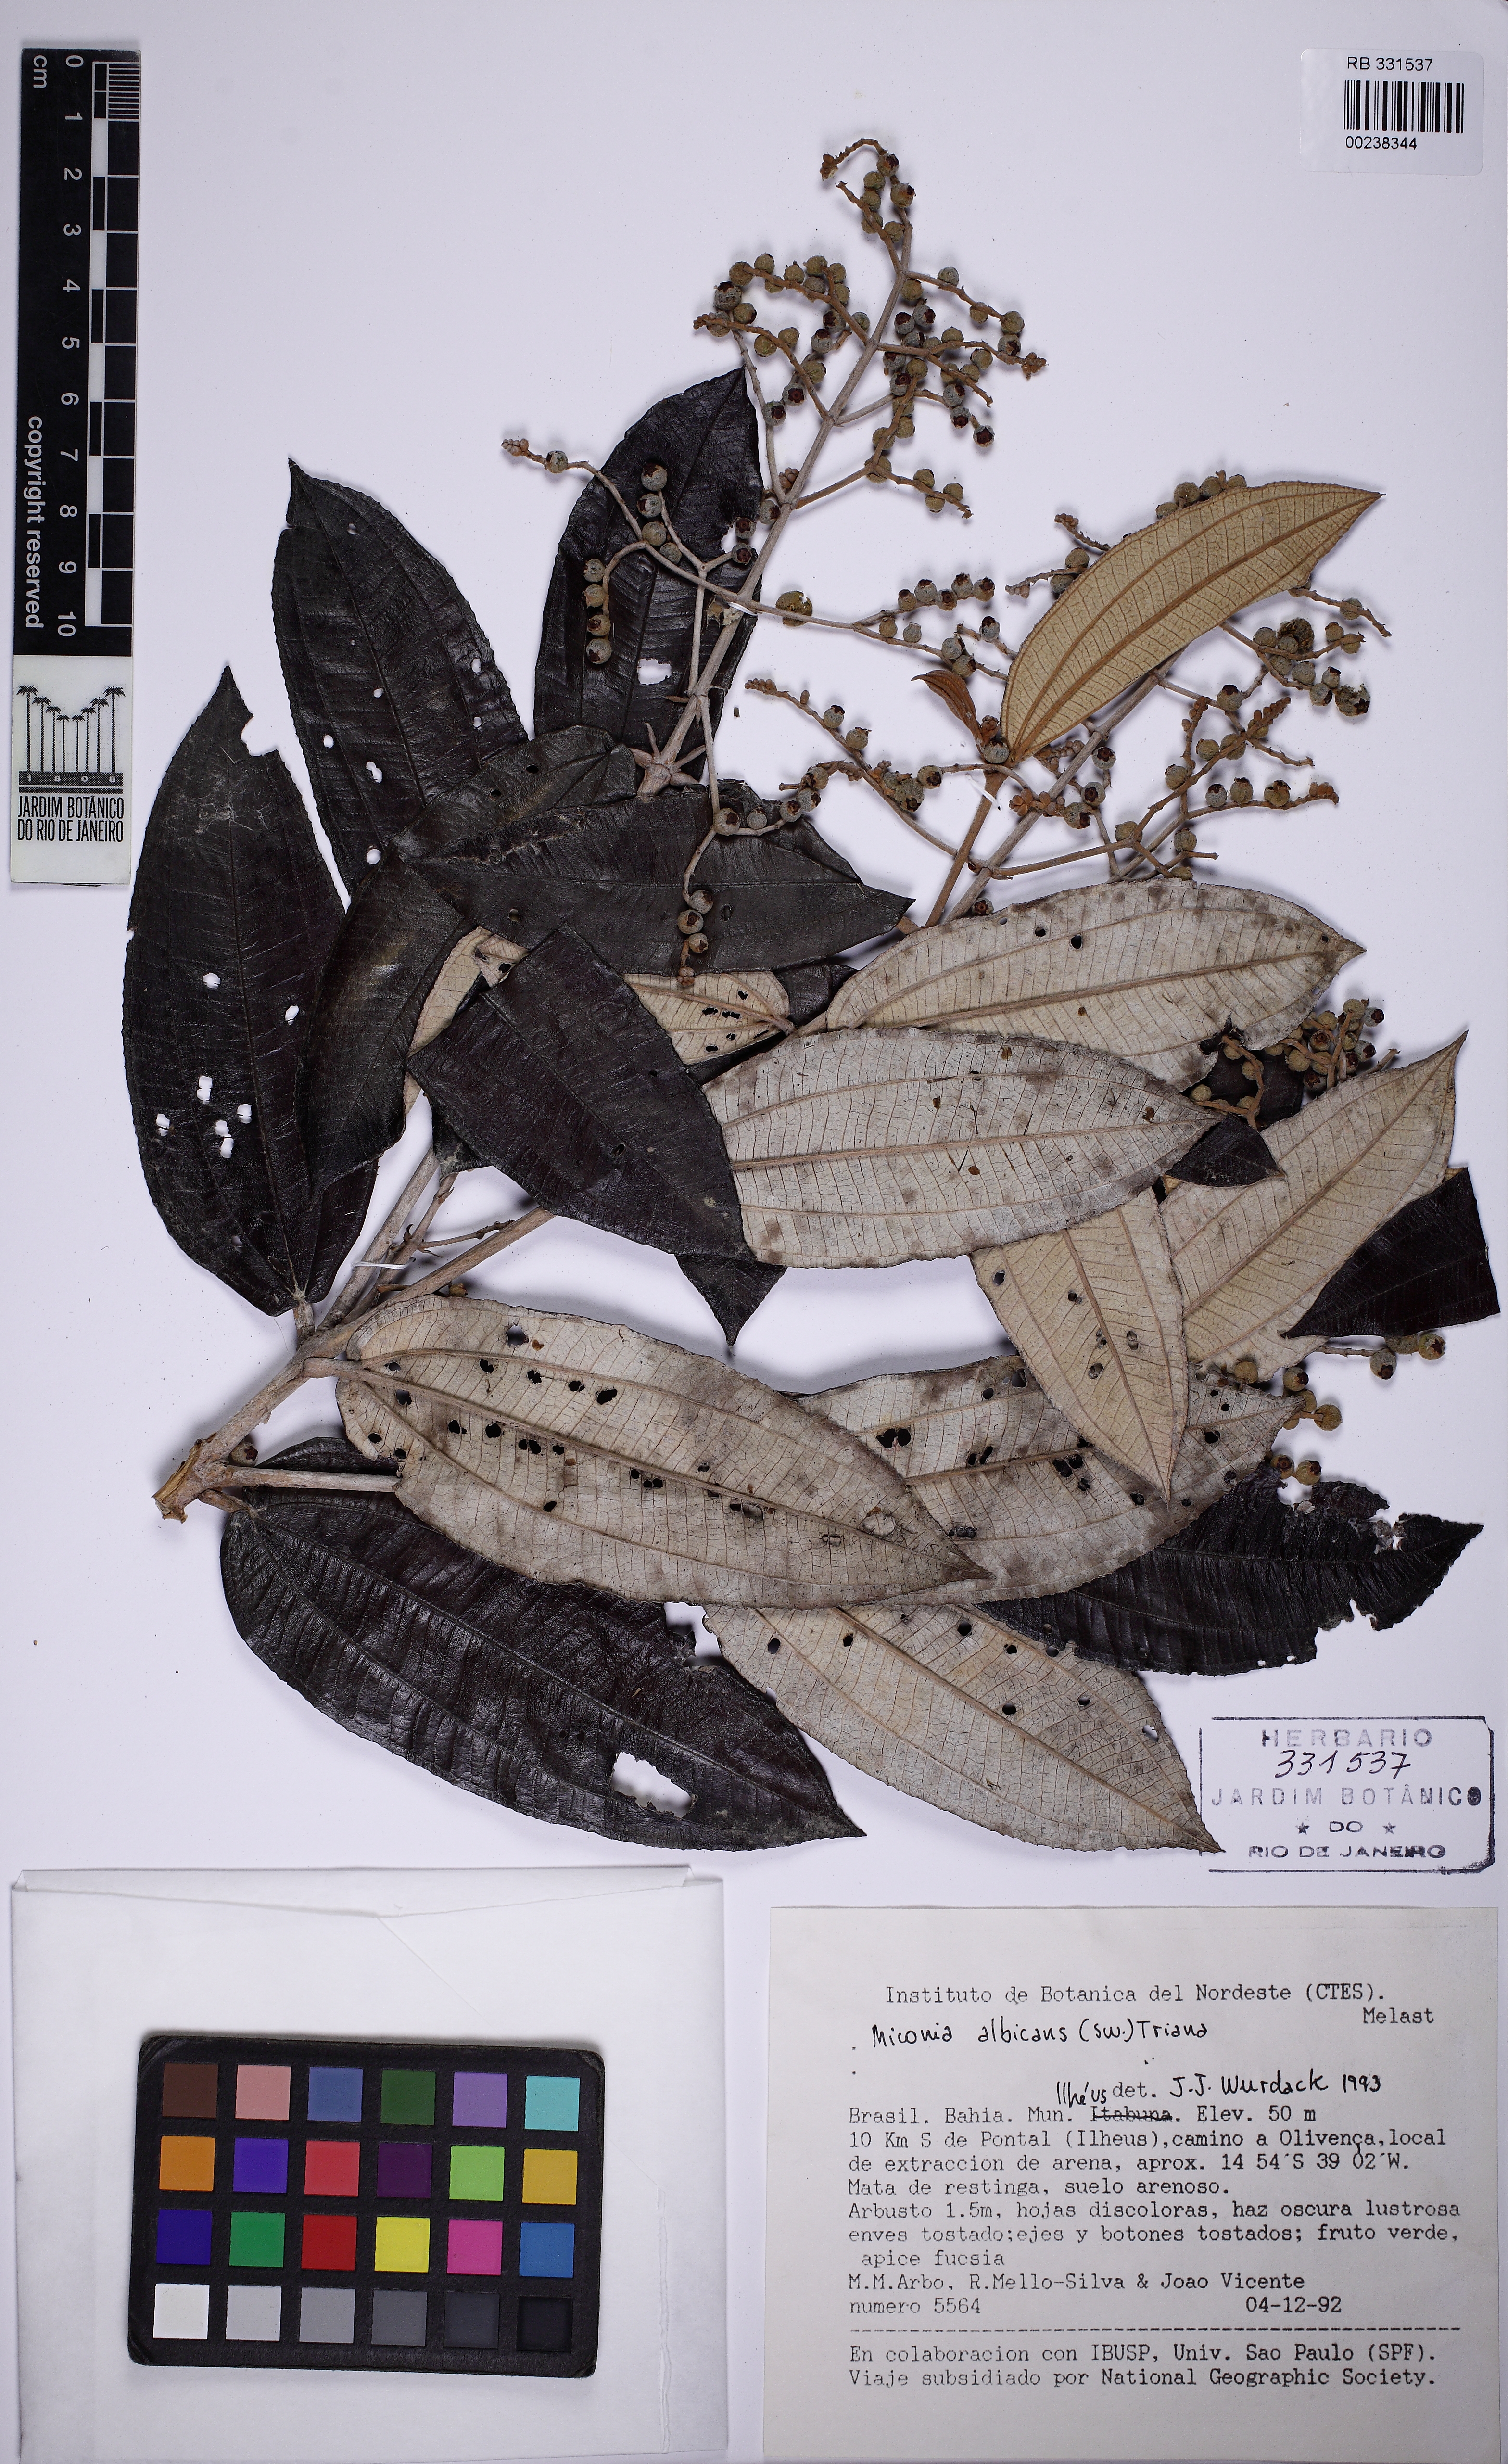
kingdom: Plantae
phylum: Tracheophyta
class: Magnoliopsida
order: Myrtales
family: Melastomataceae
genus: Miconia
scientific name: Miconia albicans
